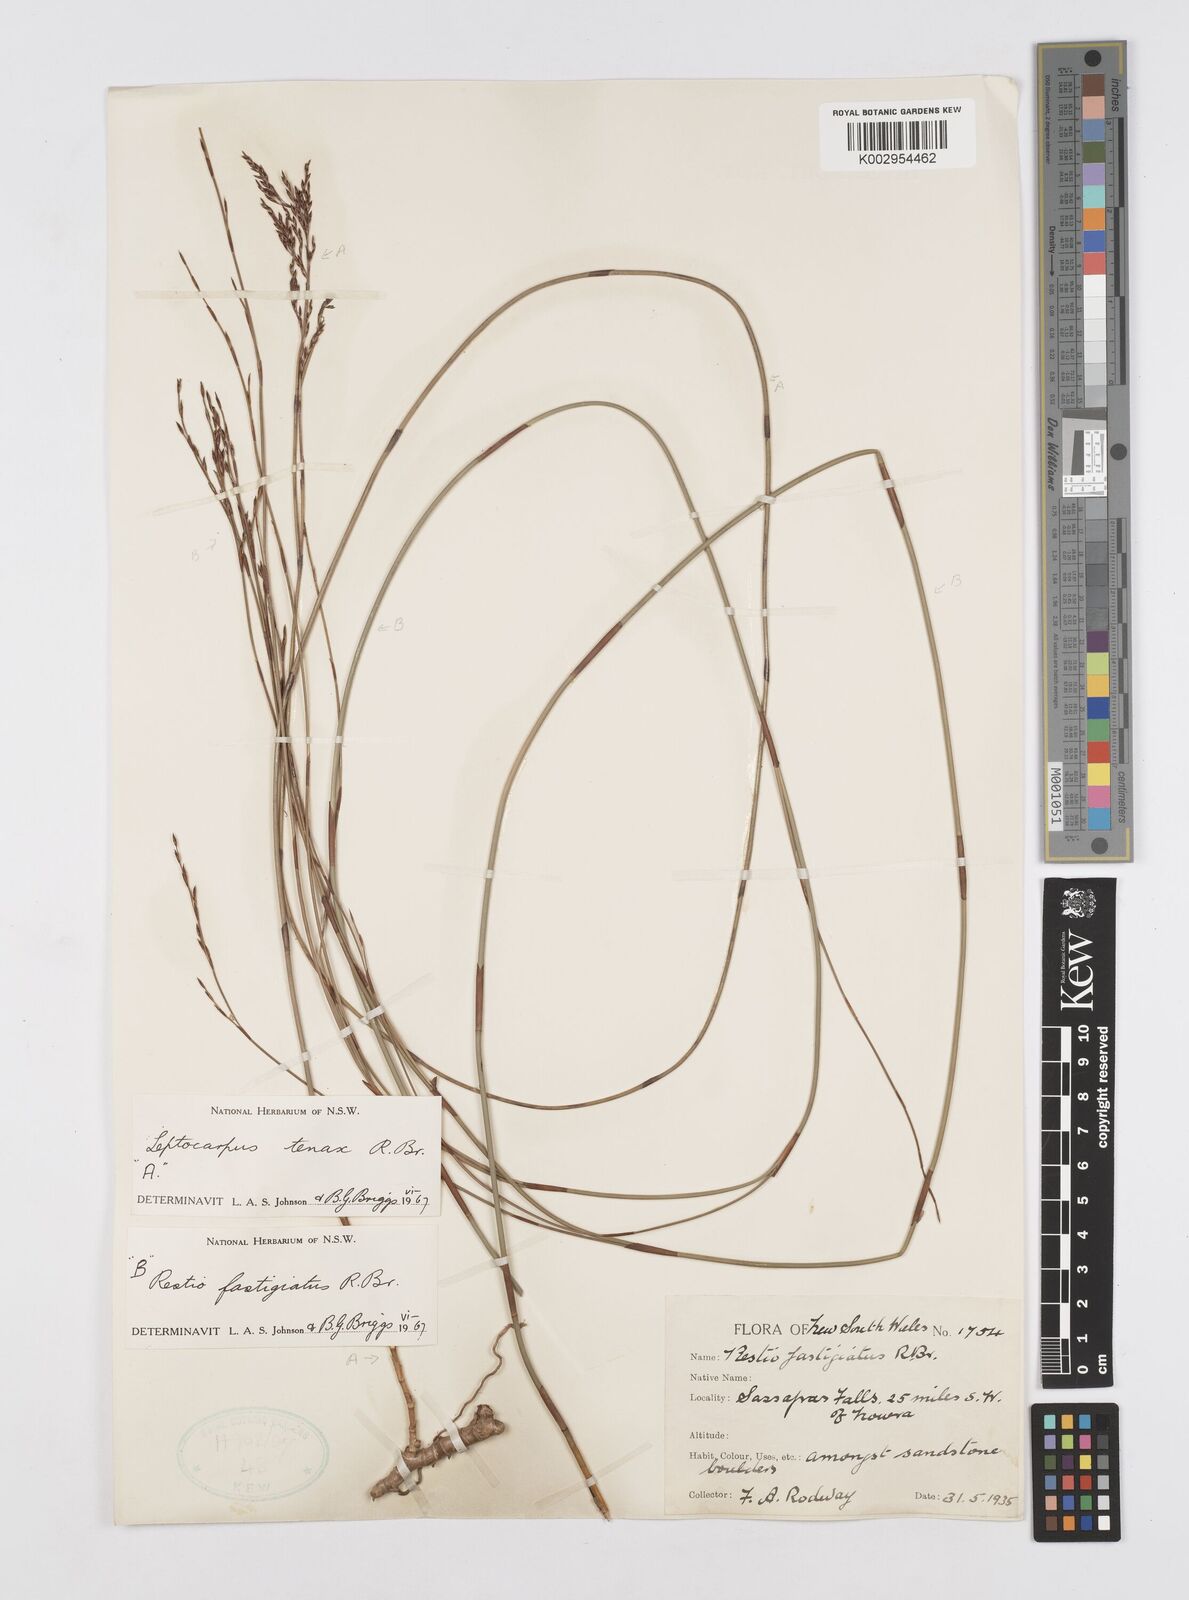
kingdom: Plantae
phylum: Tracheophyta
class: Liliopsida
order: Poales
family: Restionaceae
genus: Chordifex
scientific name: Chordifex fastigiatus
